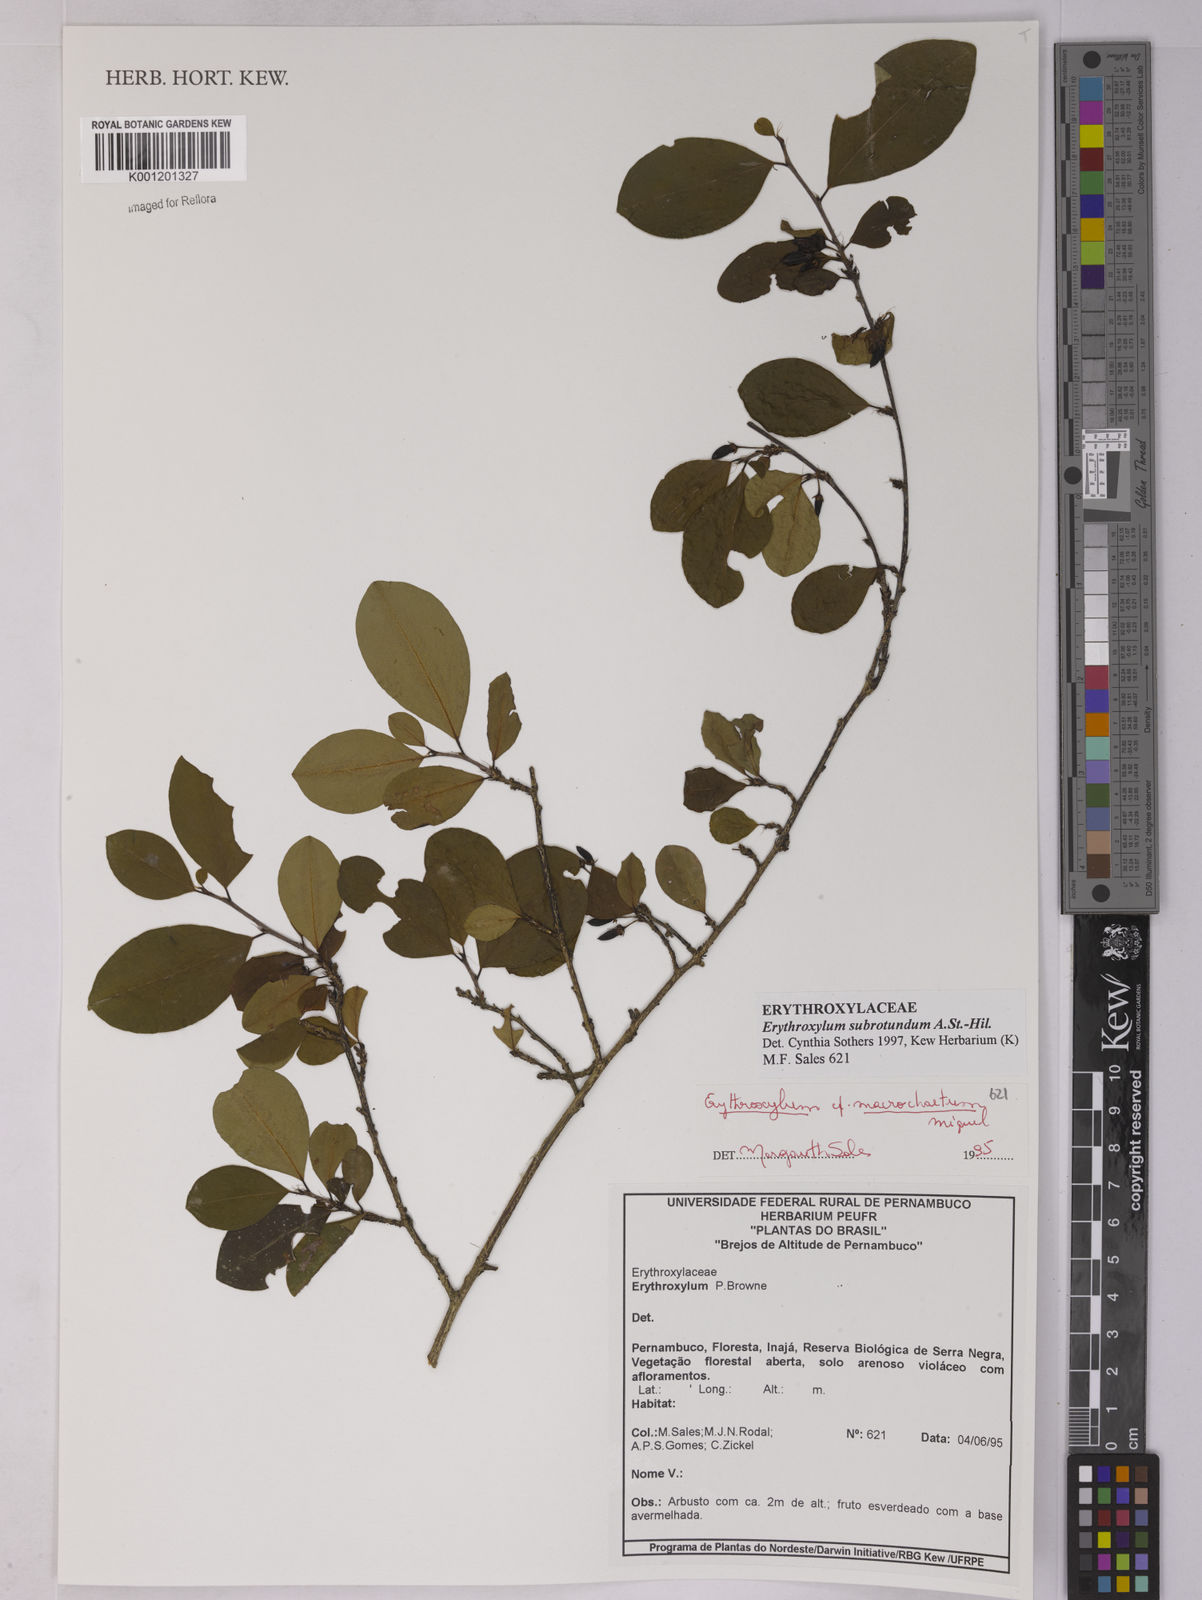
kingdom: Plantae
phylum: Tracheophyta
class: Magnoliopsida
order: Malpighiales
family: Erythroxylaceae
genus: Erythroxylum
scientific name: Erythroxylum subrotundum
